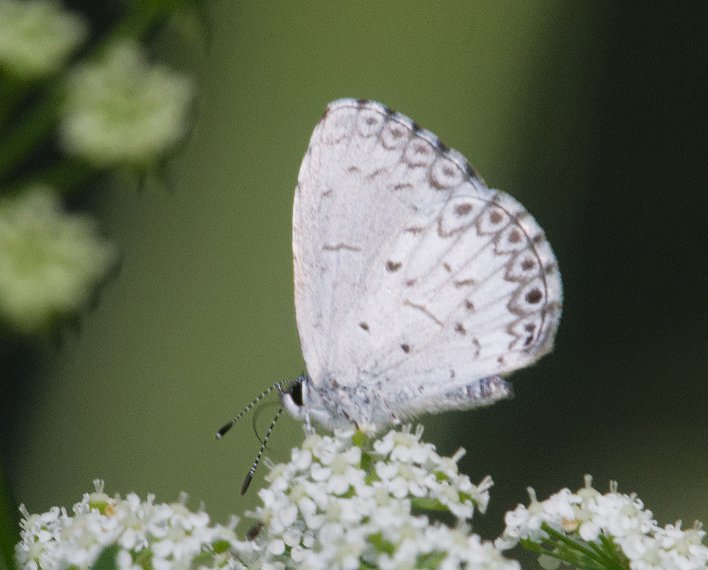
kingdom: Animalia
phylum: Arthropoda
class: Insecta
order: Lepidoptera
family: Lycaenidae
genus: Celastrina
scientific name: Celastrina
